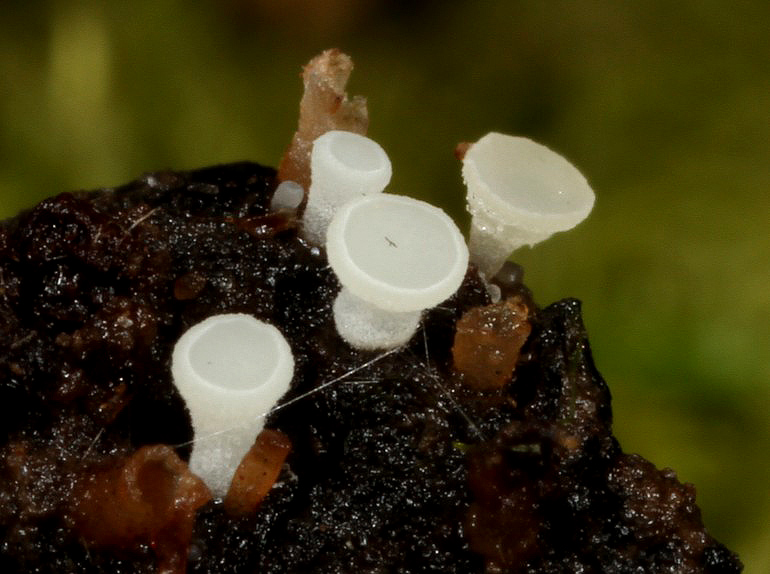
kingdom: Fungi
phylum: Ascomycota
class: Leotiomycetes
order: Helotiales
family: Helotiaceae
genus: Hymenoscyphus
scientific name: Hymenoscyphus imberbis
